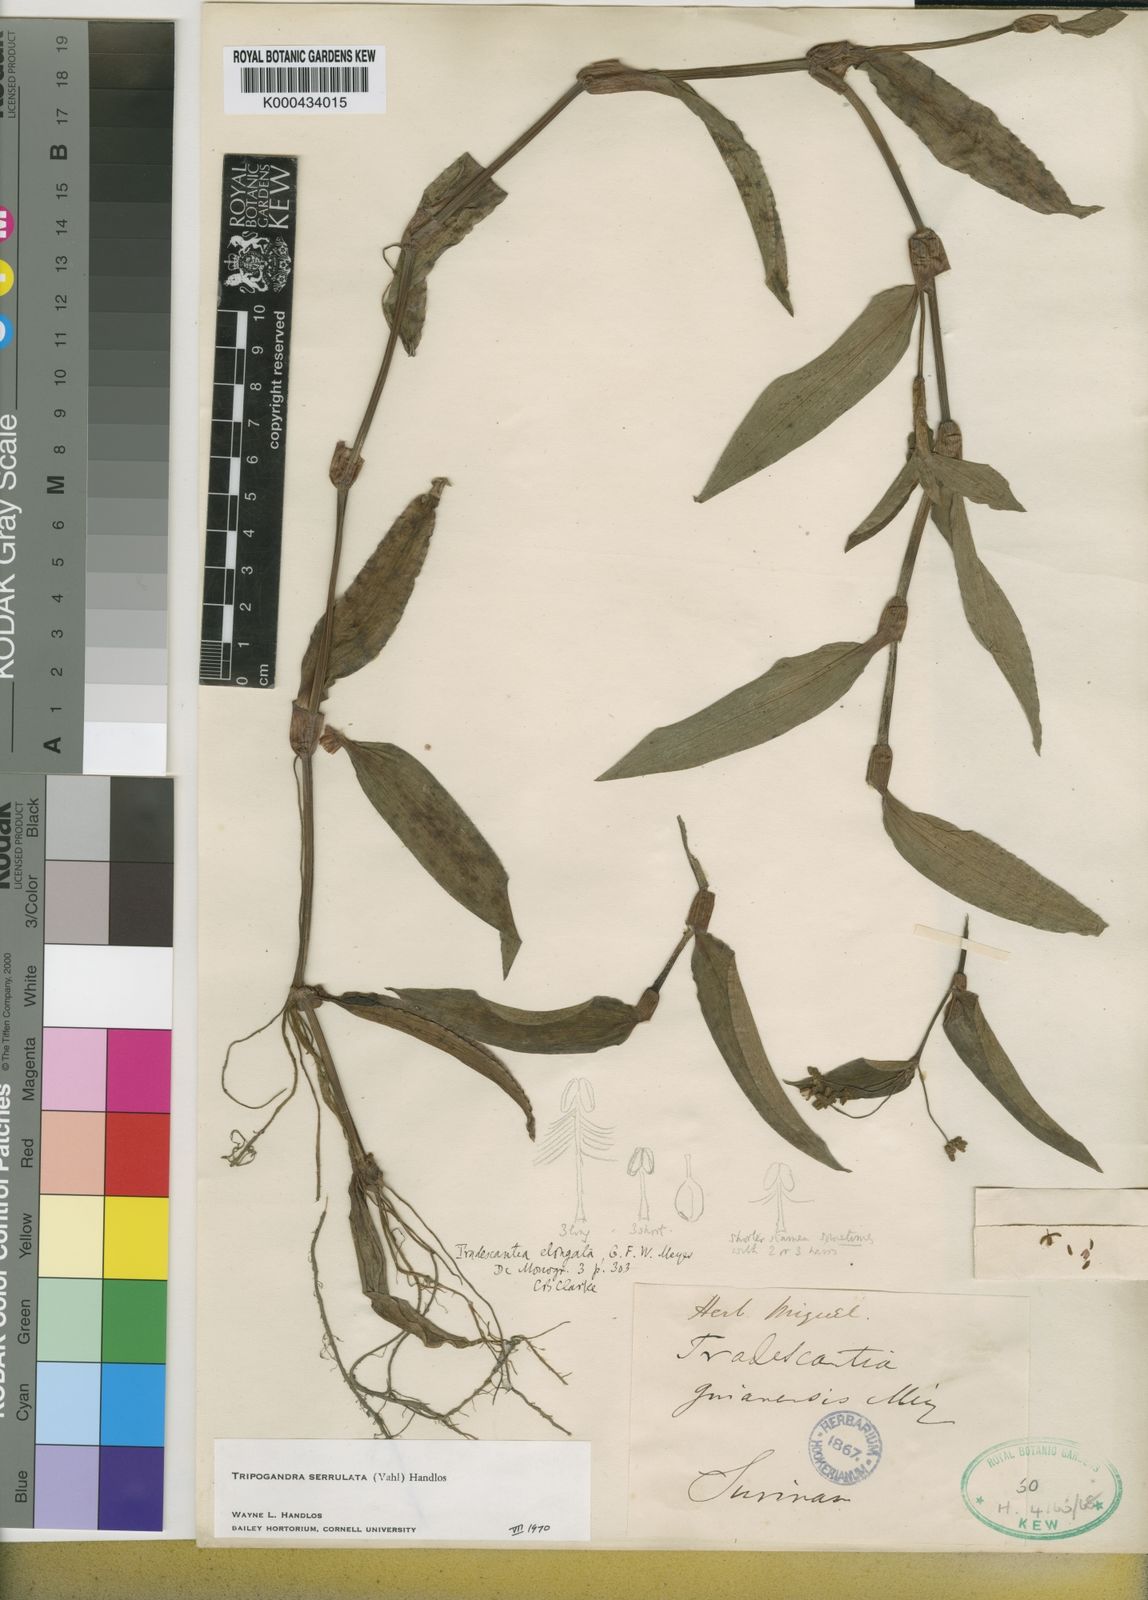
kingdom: Plantae
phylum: Tracheophyta
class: Liliopsida
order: Commelinales
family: Commelinaceae
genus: Callisia
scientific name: Callisia serrulata
